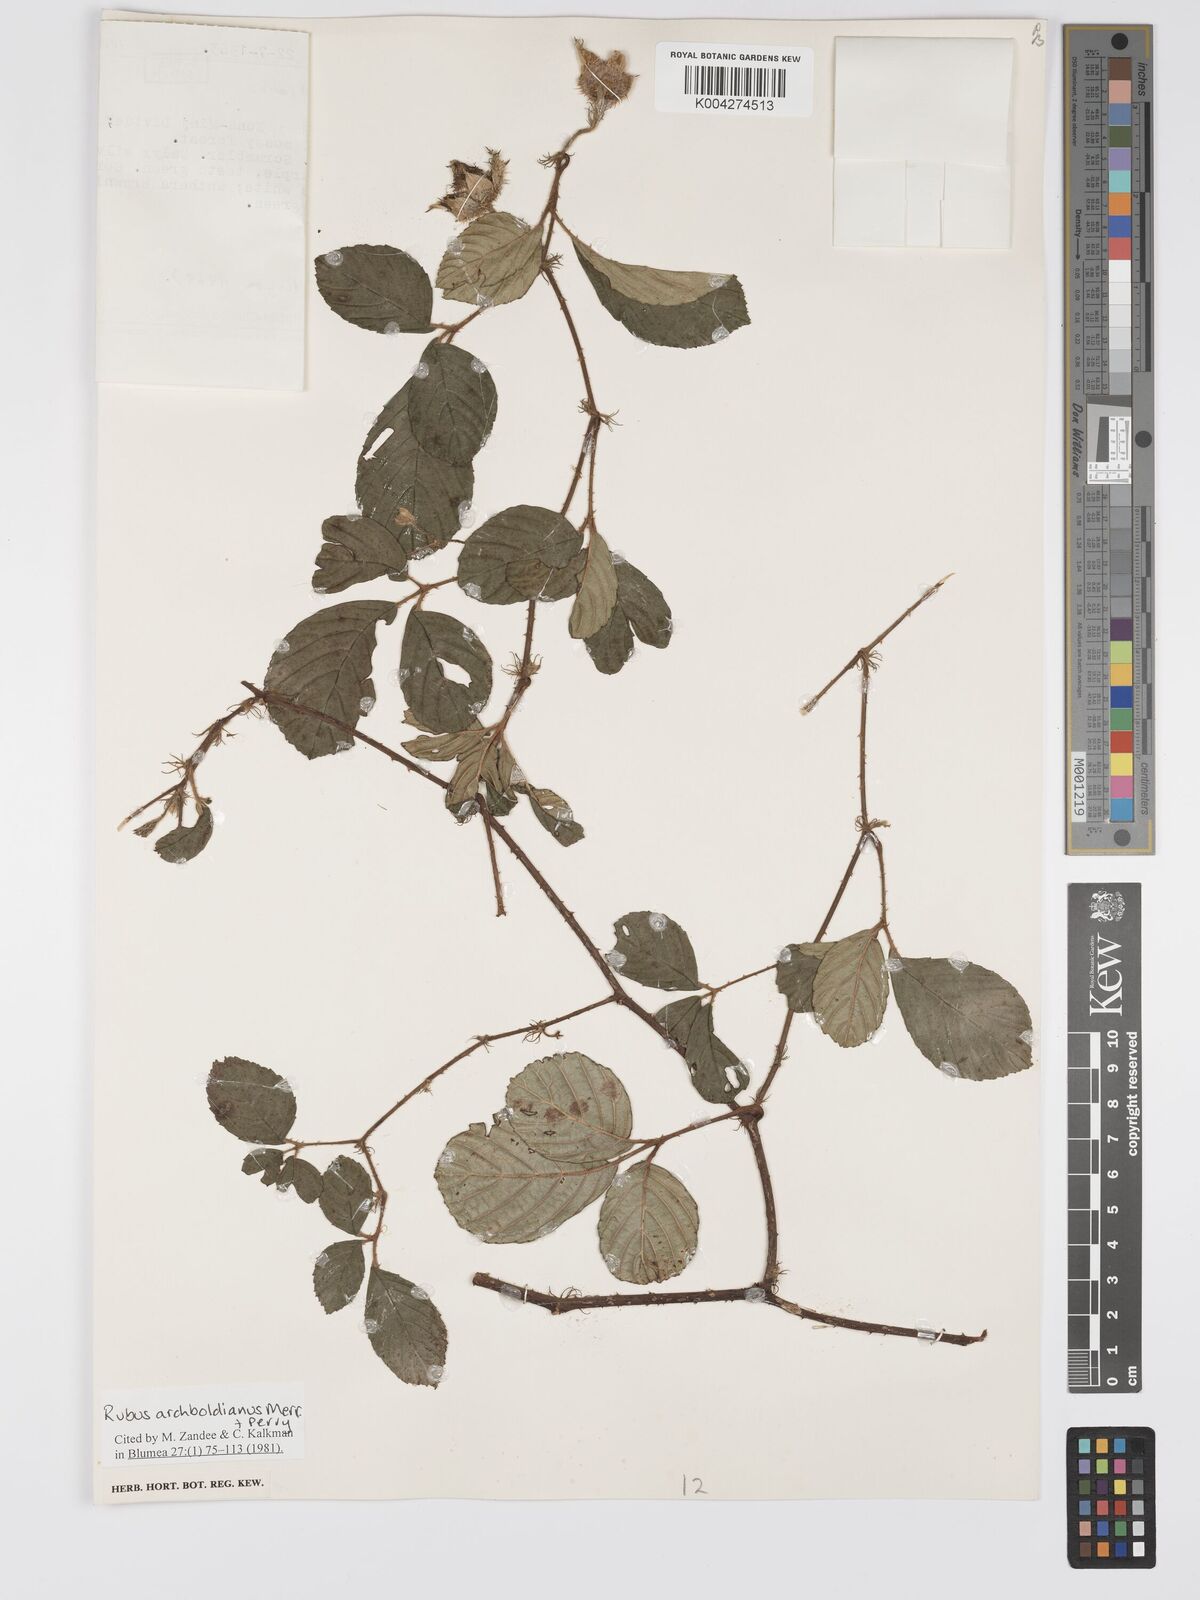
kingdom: Plantae
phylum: Tracheophyta
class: Magnoliopsida
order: Rosales
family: Rosaceae
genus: Rubus
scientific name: Rubus archboldianus
